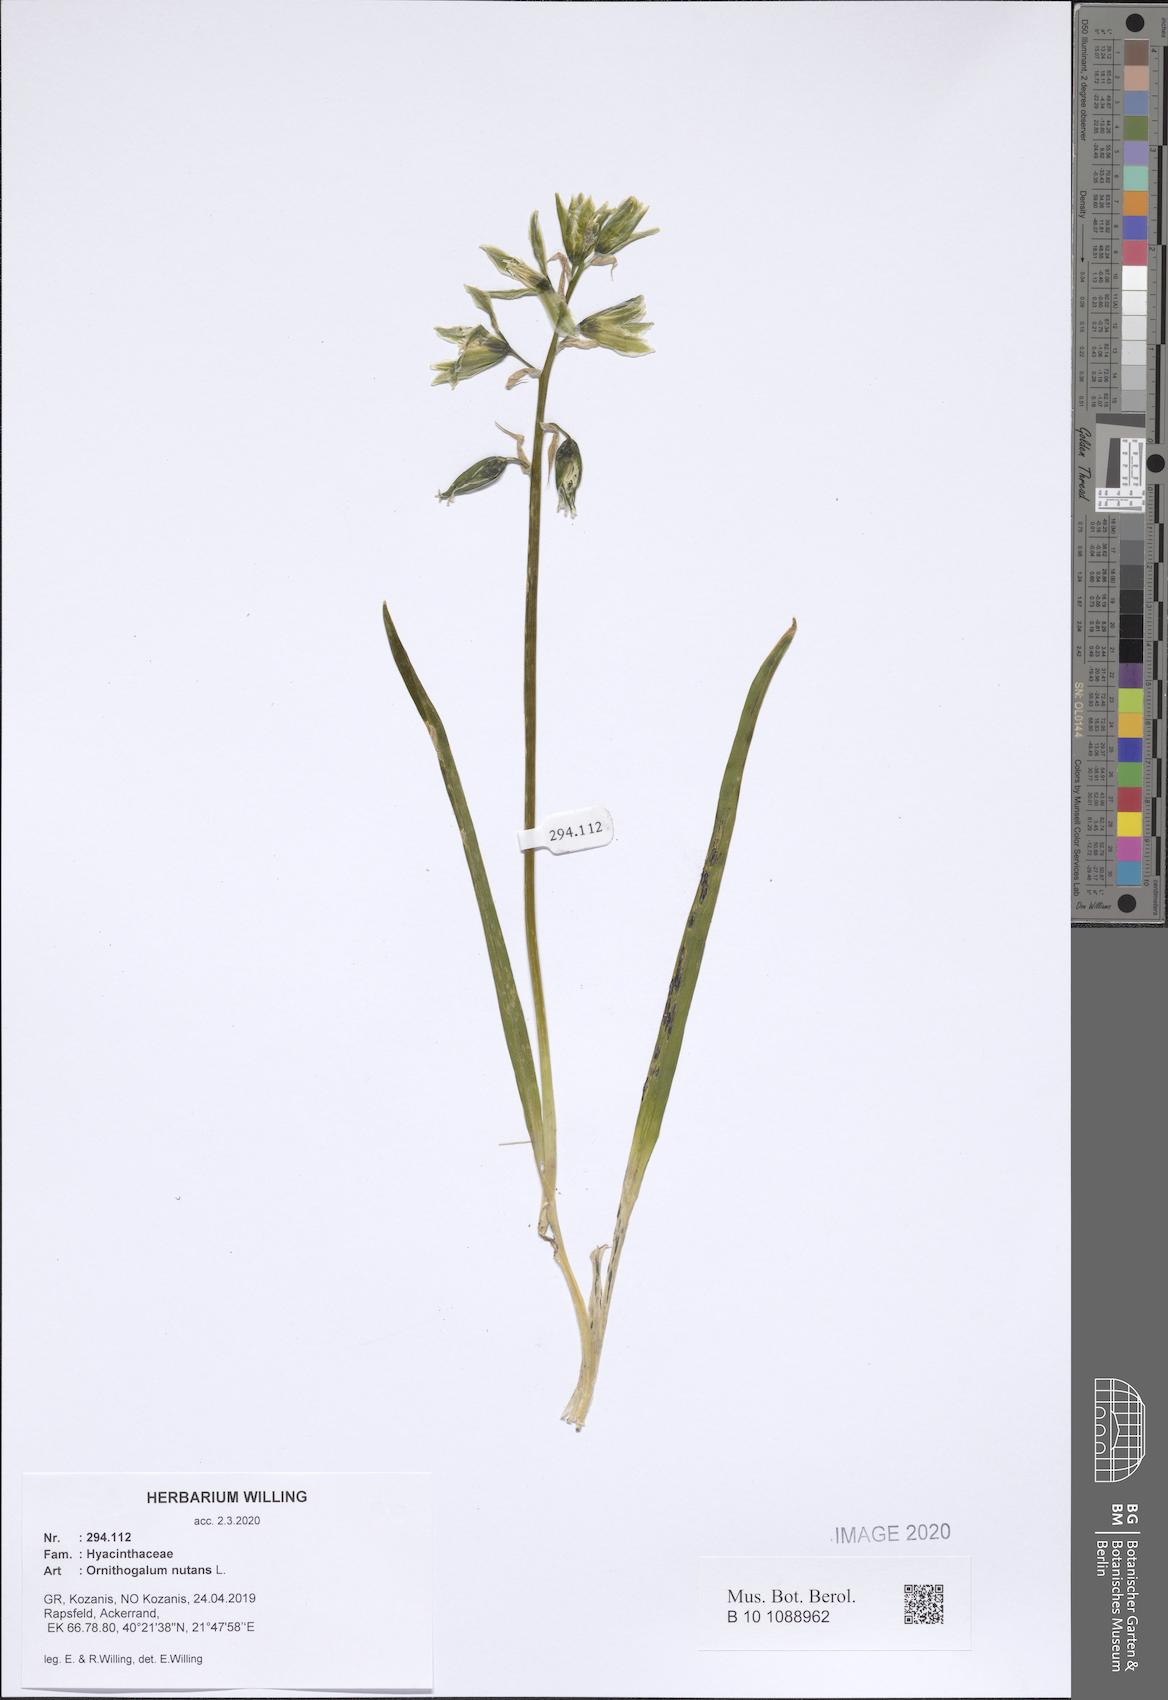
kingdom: Plantae
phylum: Tracheophyta
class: Liliopsida
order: Asparagales
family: Asparagaceae
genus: Ornithogalum
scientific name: Ornithogalum nutans
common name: Drooping star-of-bethlehem
